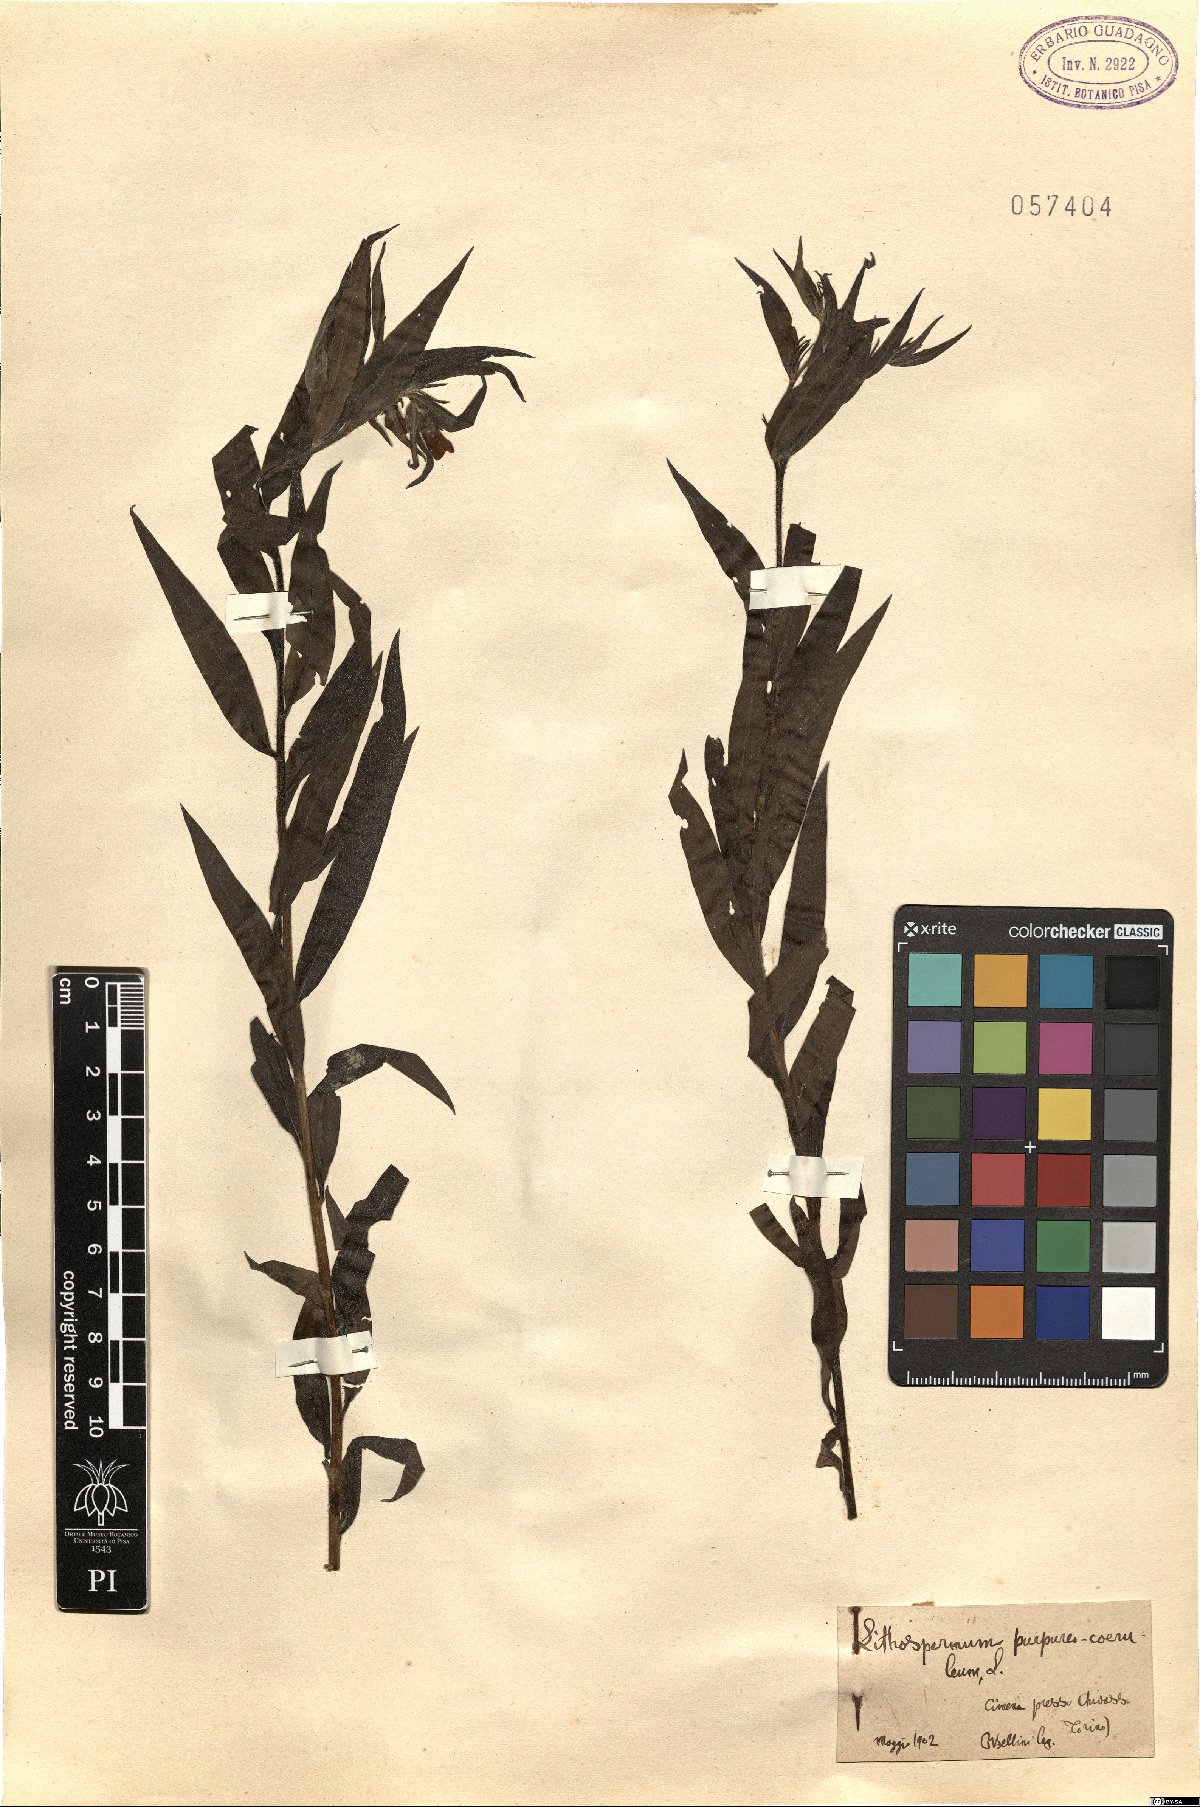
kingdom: Plantae
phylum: Tracheophyta
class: Magnoliopsida
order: Boraginales
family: Boraginaceae
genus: Aegonychon
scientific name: Aegonychon purpurocaeruleum
